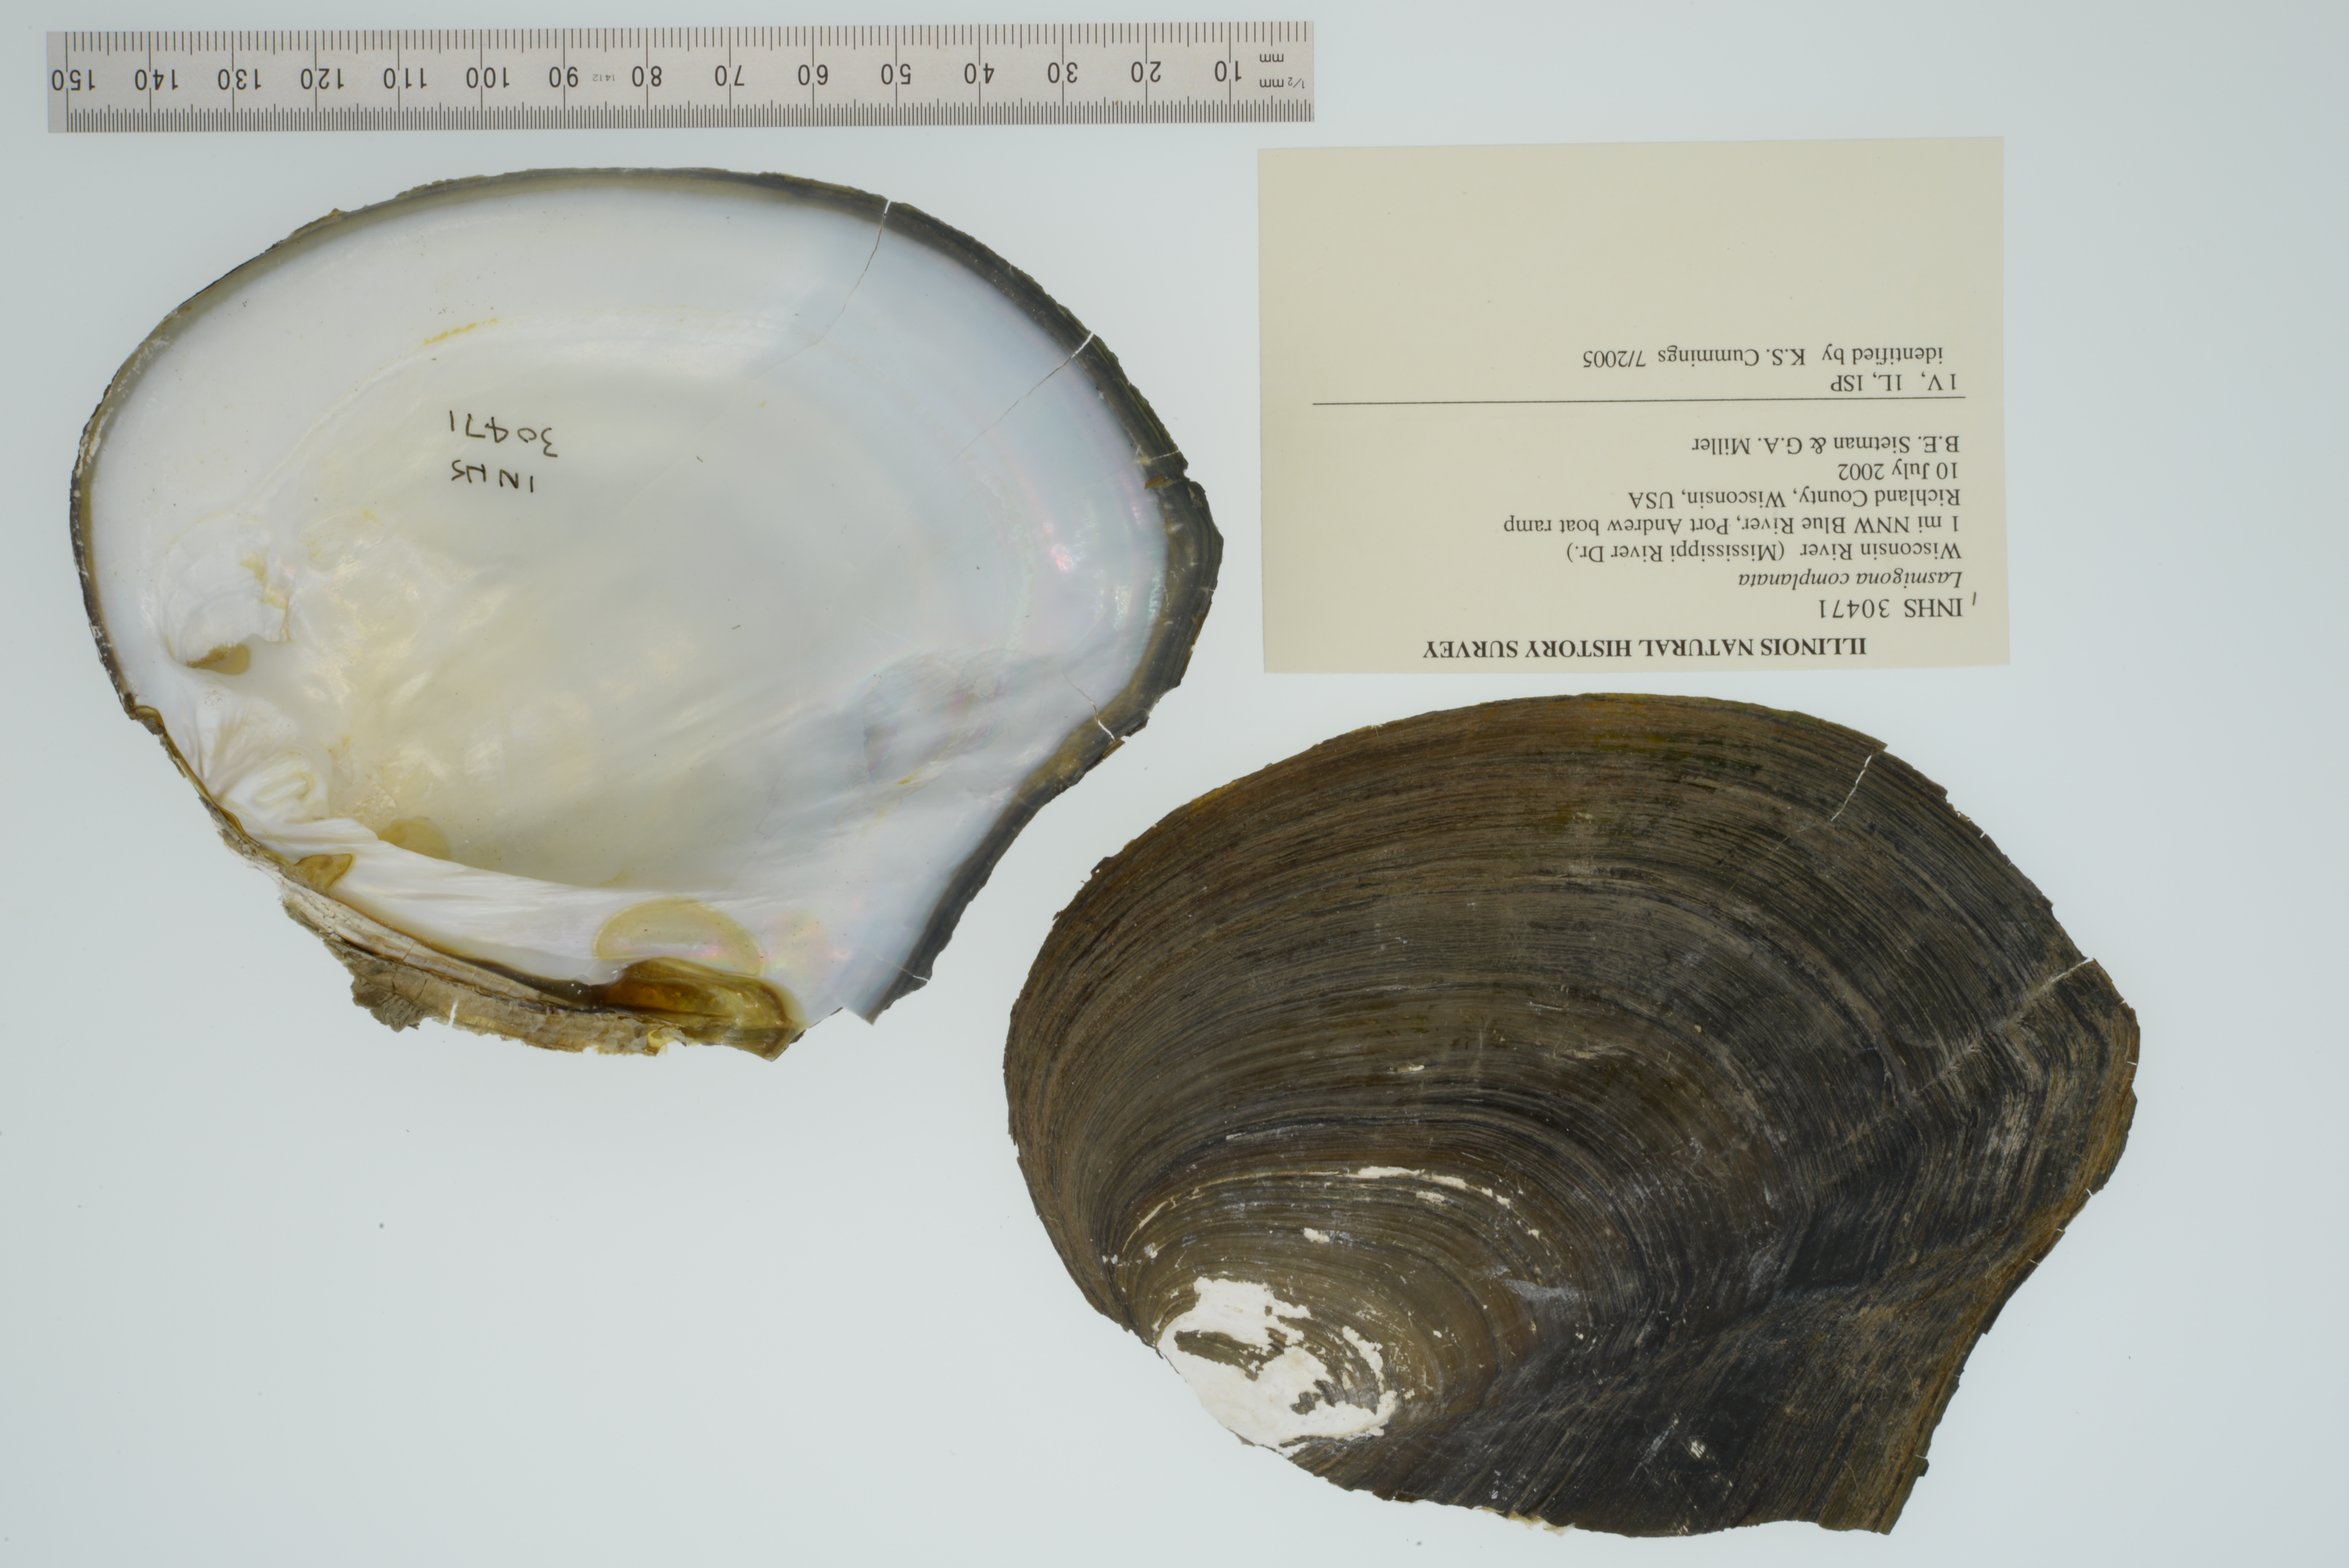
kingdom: Animalia
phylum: Mollusca
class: Bivalvia
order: Unionida
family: Unionidae
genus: Lasmigona
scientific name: Lasmigona complanata
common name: White heelsplitter
